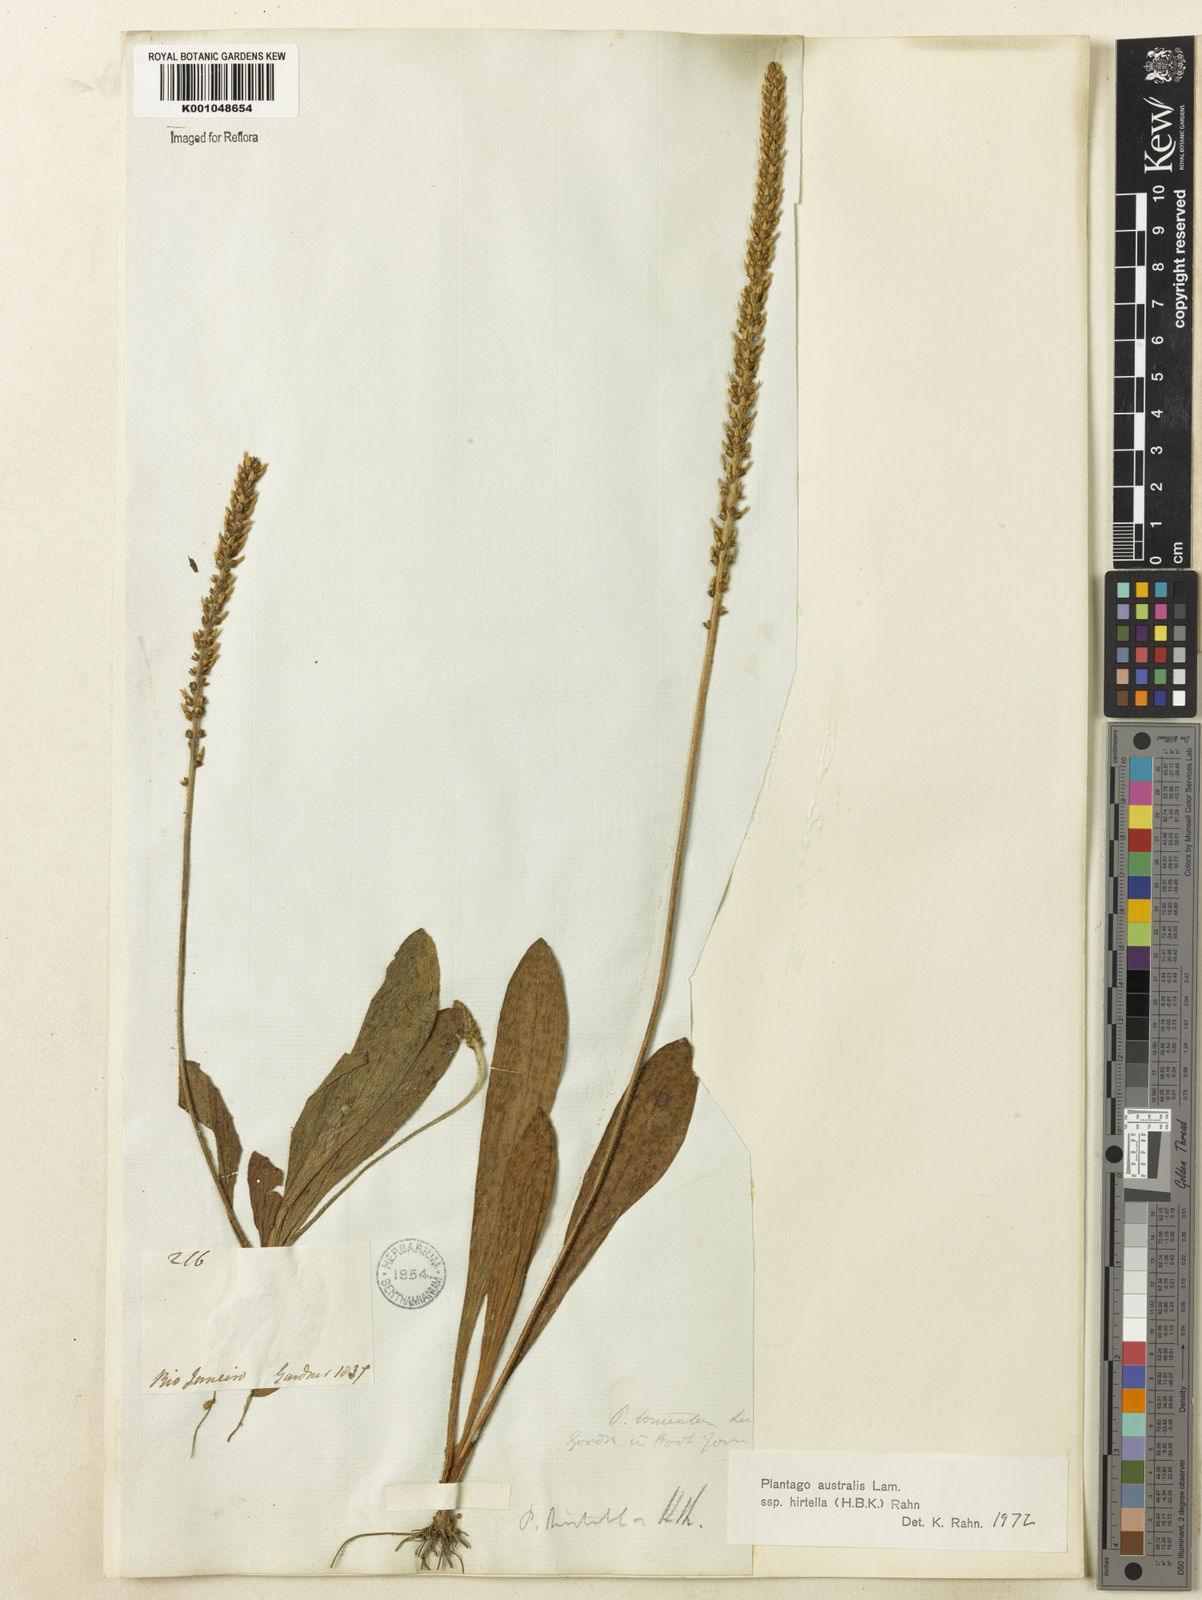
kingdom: Plantae
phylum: Tracheophyta
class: Magnoliopsida
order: Lamiales
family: Plantaginaceae
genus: Plantago
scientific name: Plantago australis
